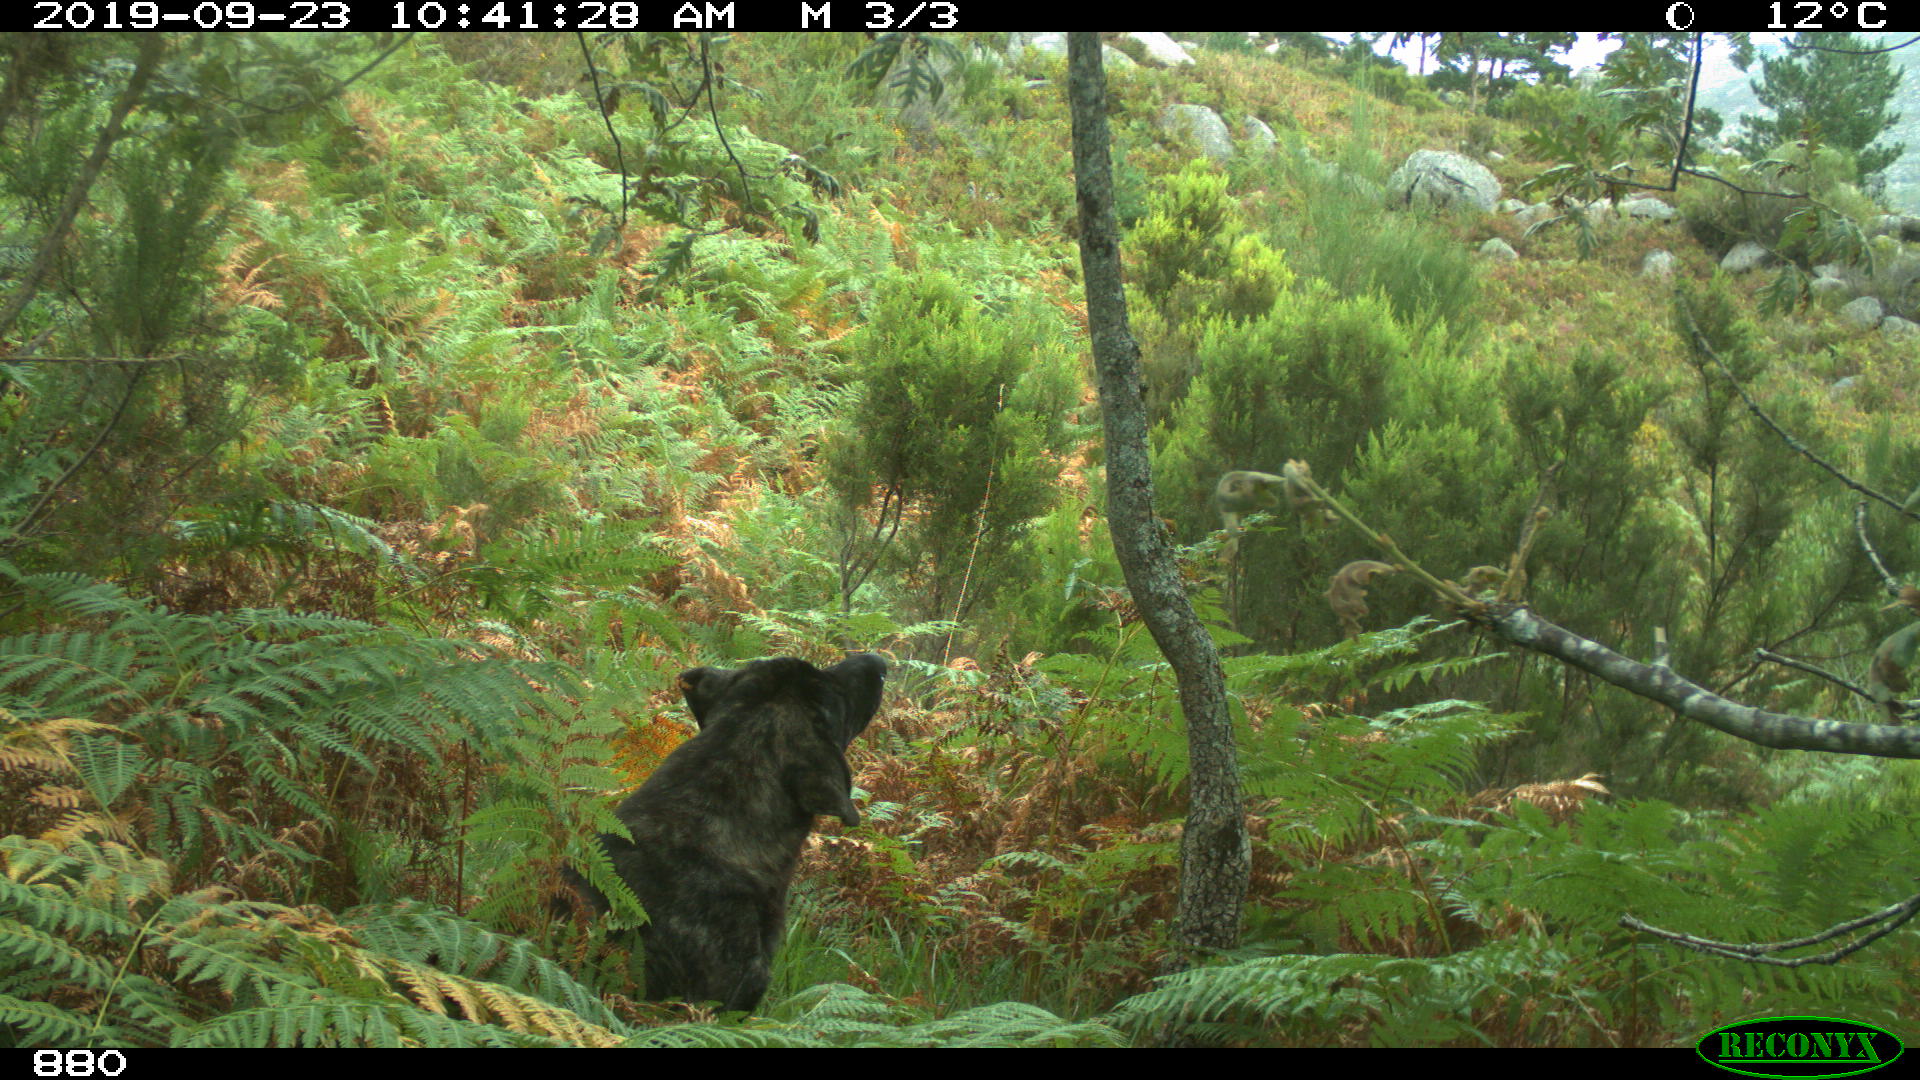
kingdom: Animalia
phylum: Chordata
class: Mammalia
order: Carnivora
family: Canidae
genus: Canis
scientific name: Canis lupus
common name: Gray wolf
